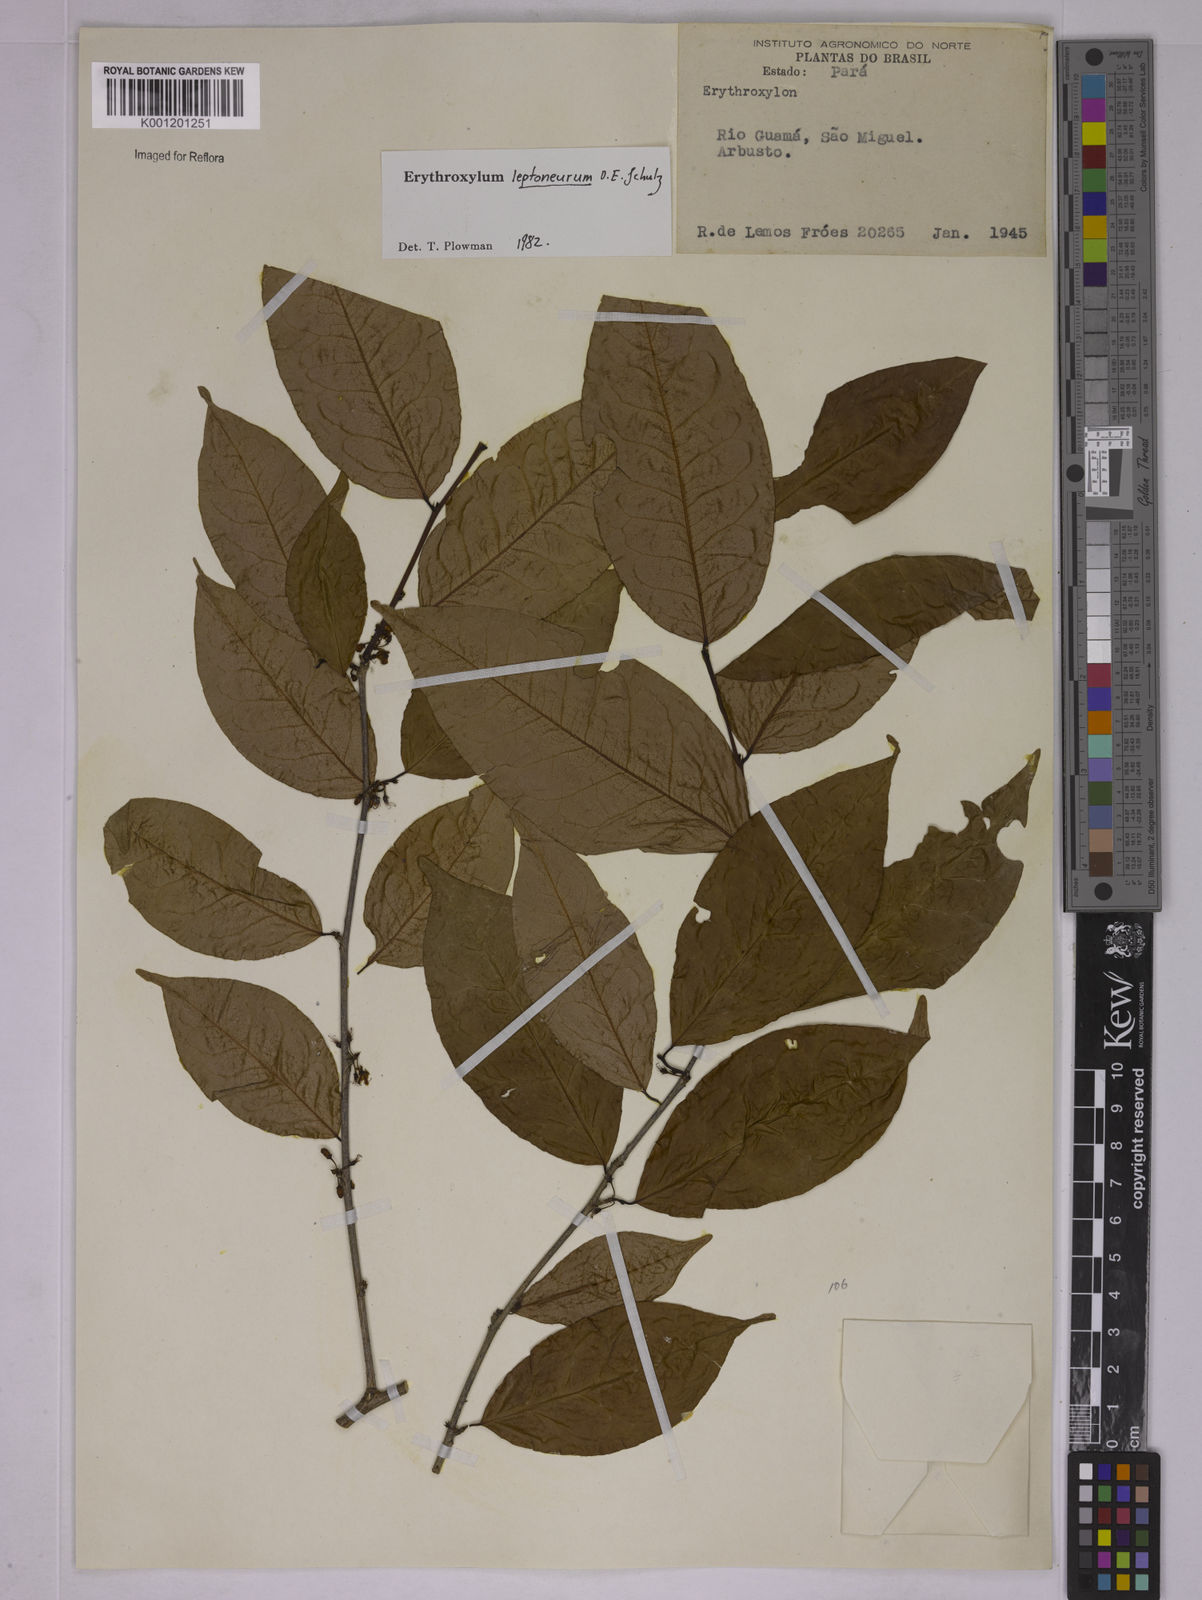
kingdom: Plantae
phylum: Tracheophyta
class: Magnoliopsida
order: Malpighiales
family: Erythroxylaceae
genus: Erythroxylum
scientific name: Erythroxylum leptoneurum
